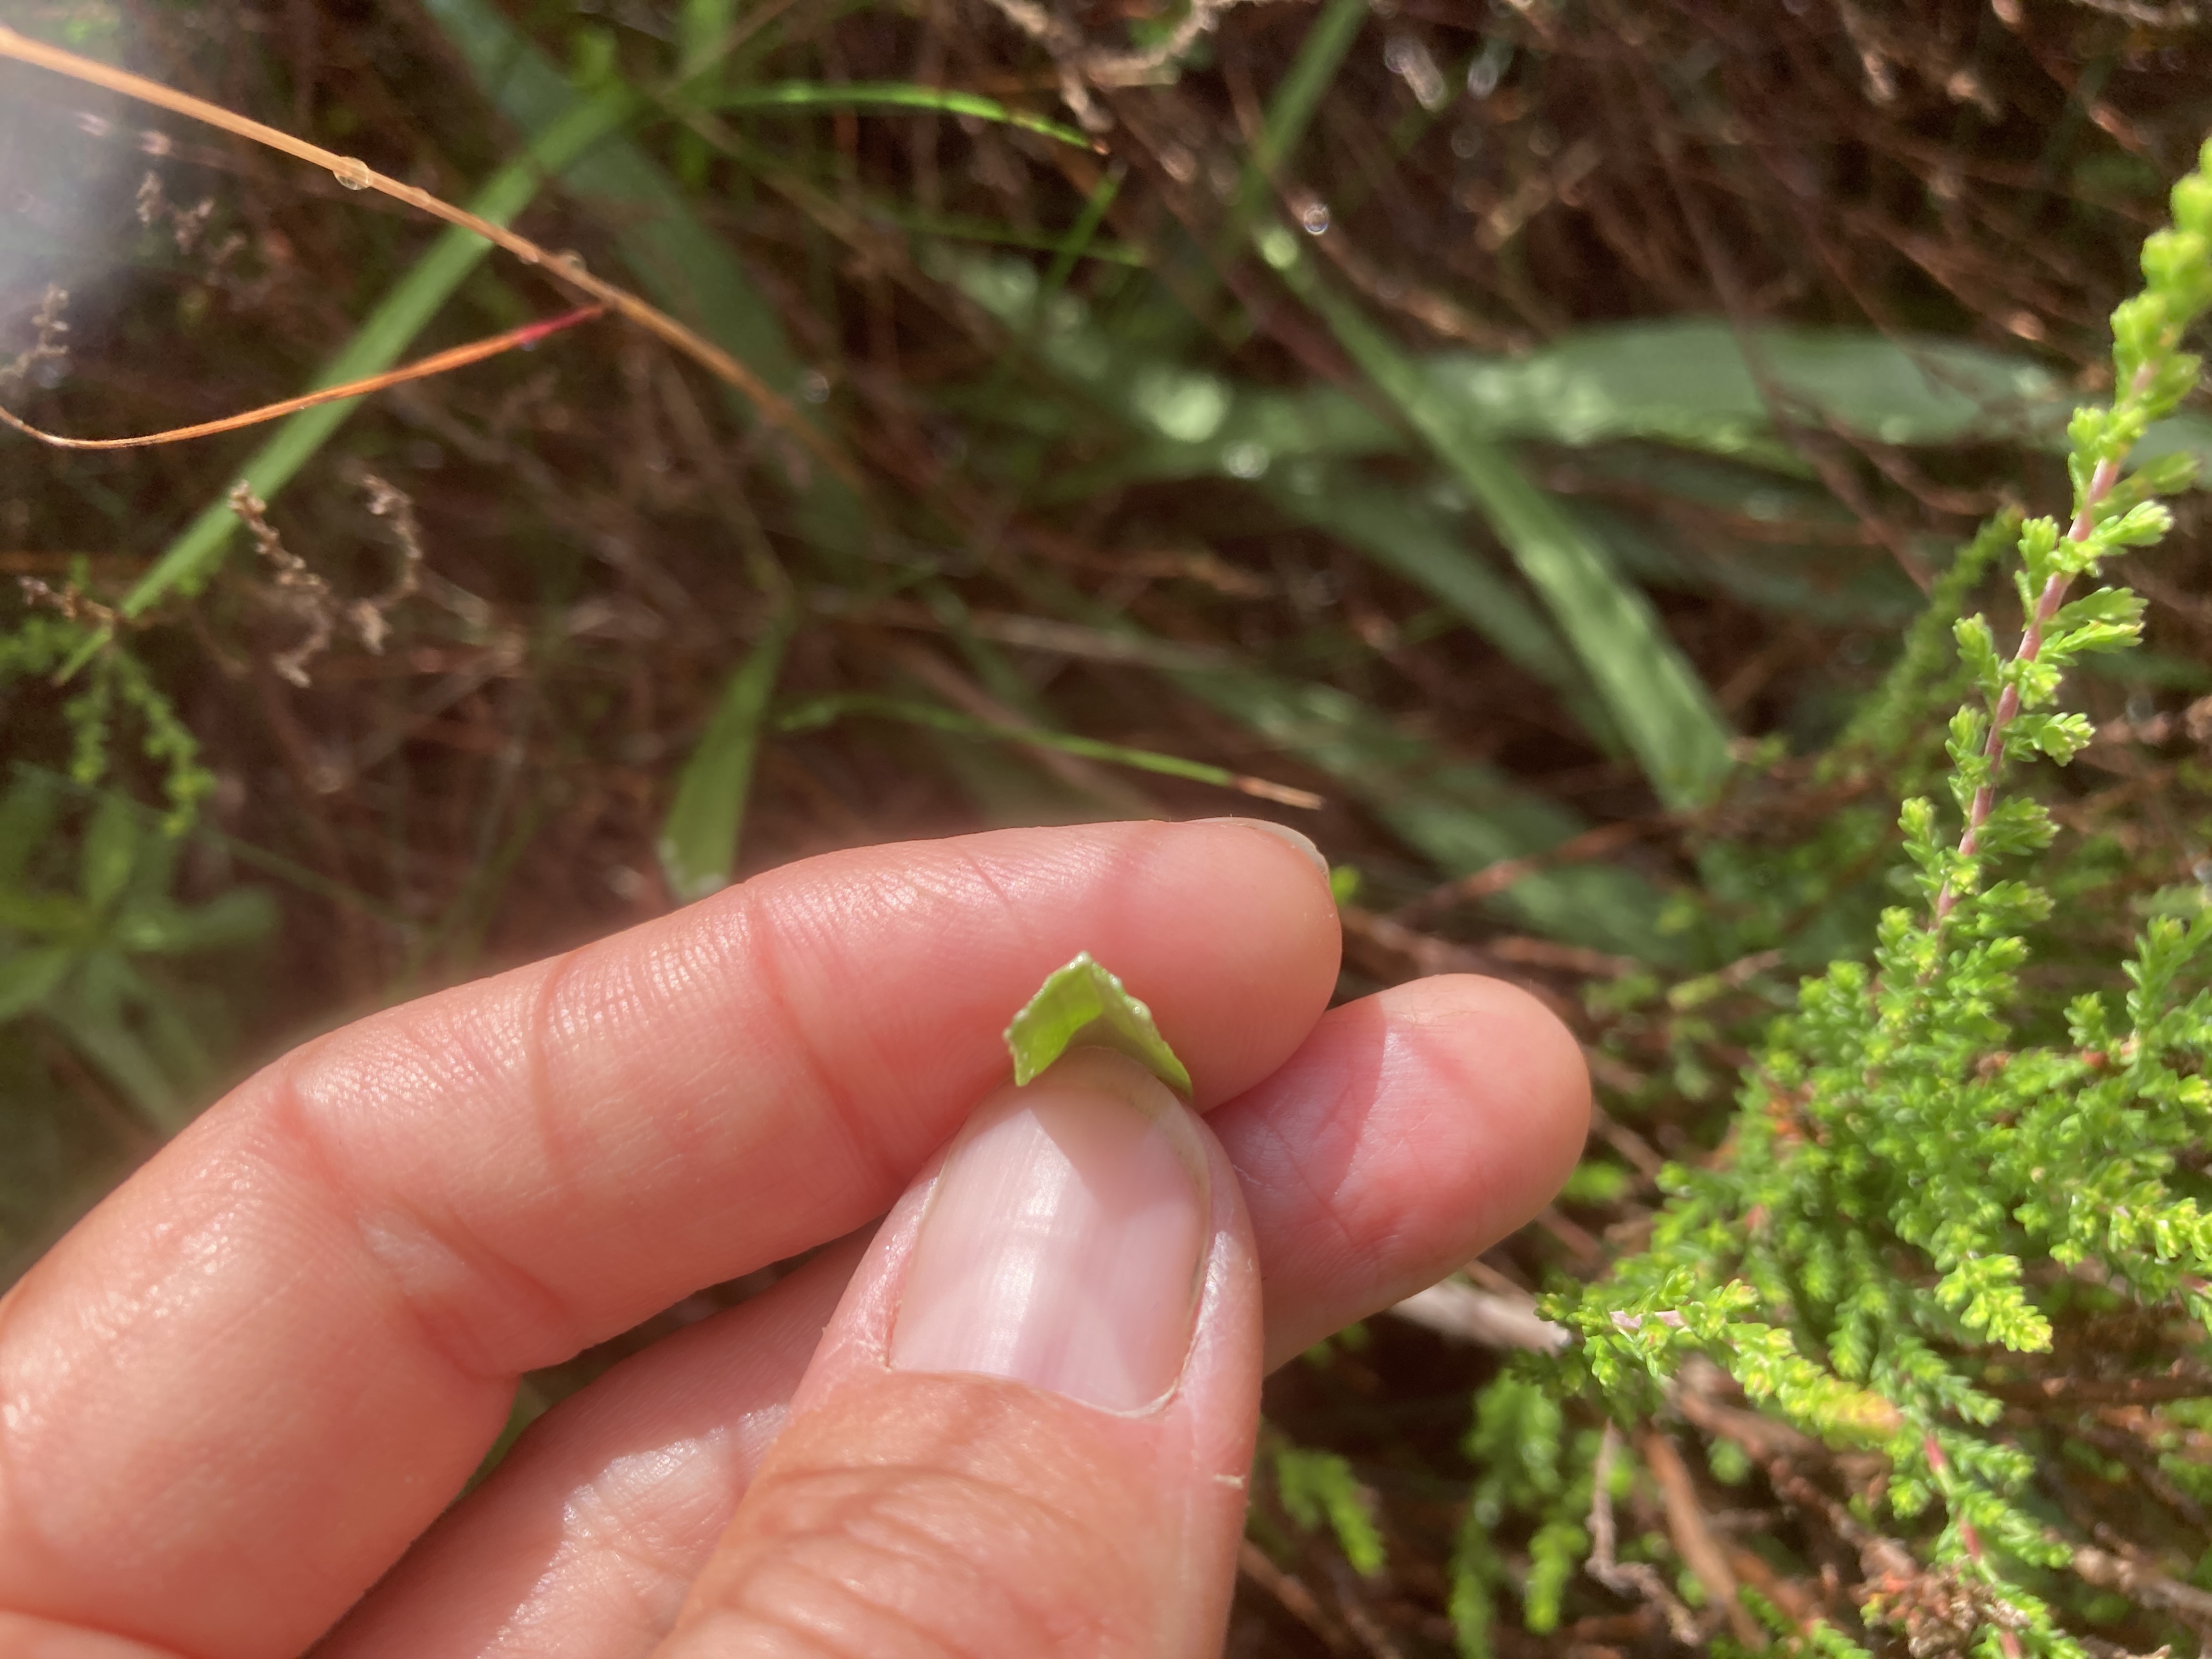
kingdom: Plantae
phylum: Tracheophyta
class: Magnoliopsida
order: Asterales
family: Asteraceae
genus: Scorzonera
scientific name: Scorzonera humilis
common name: Lav skorsoner
